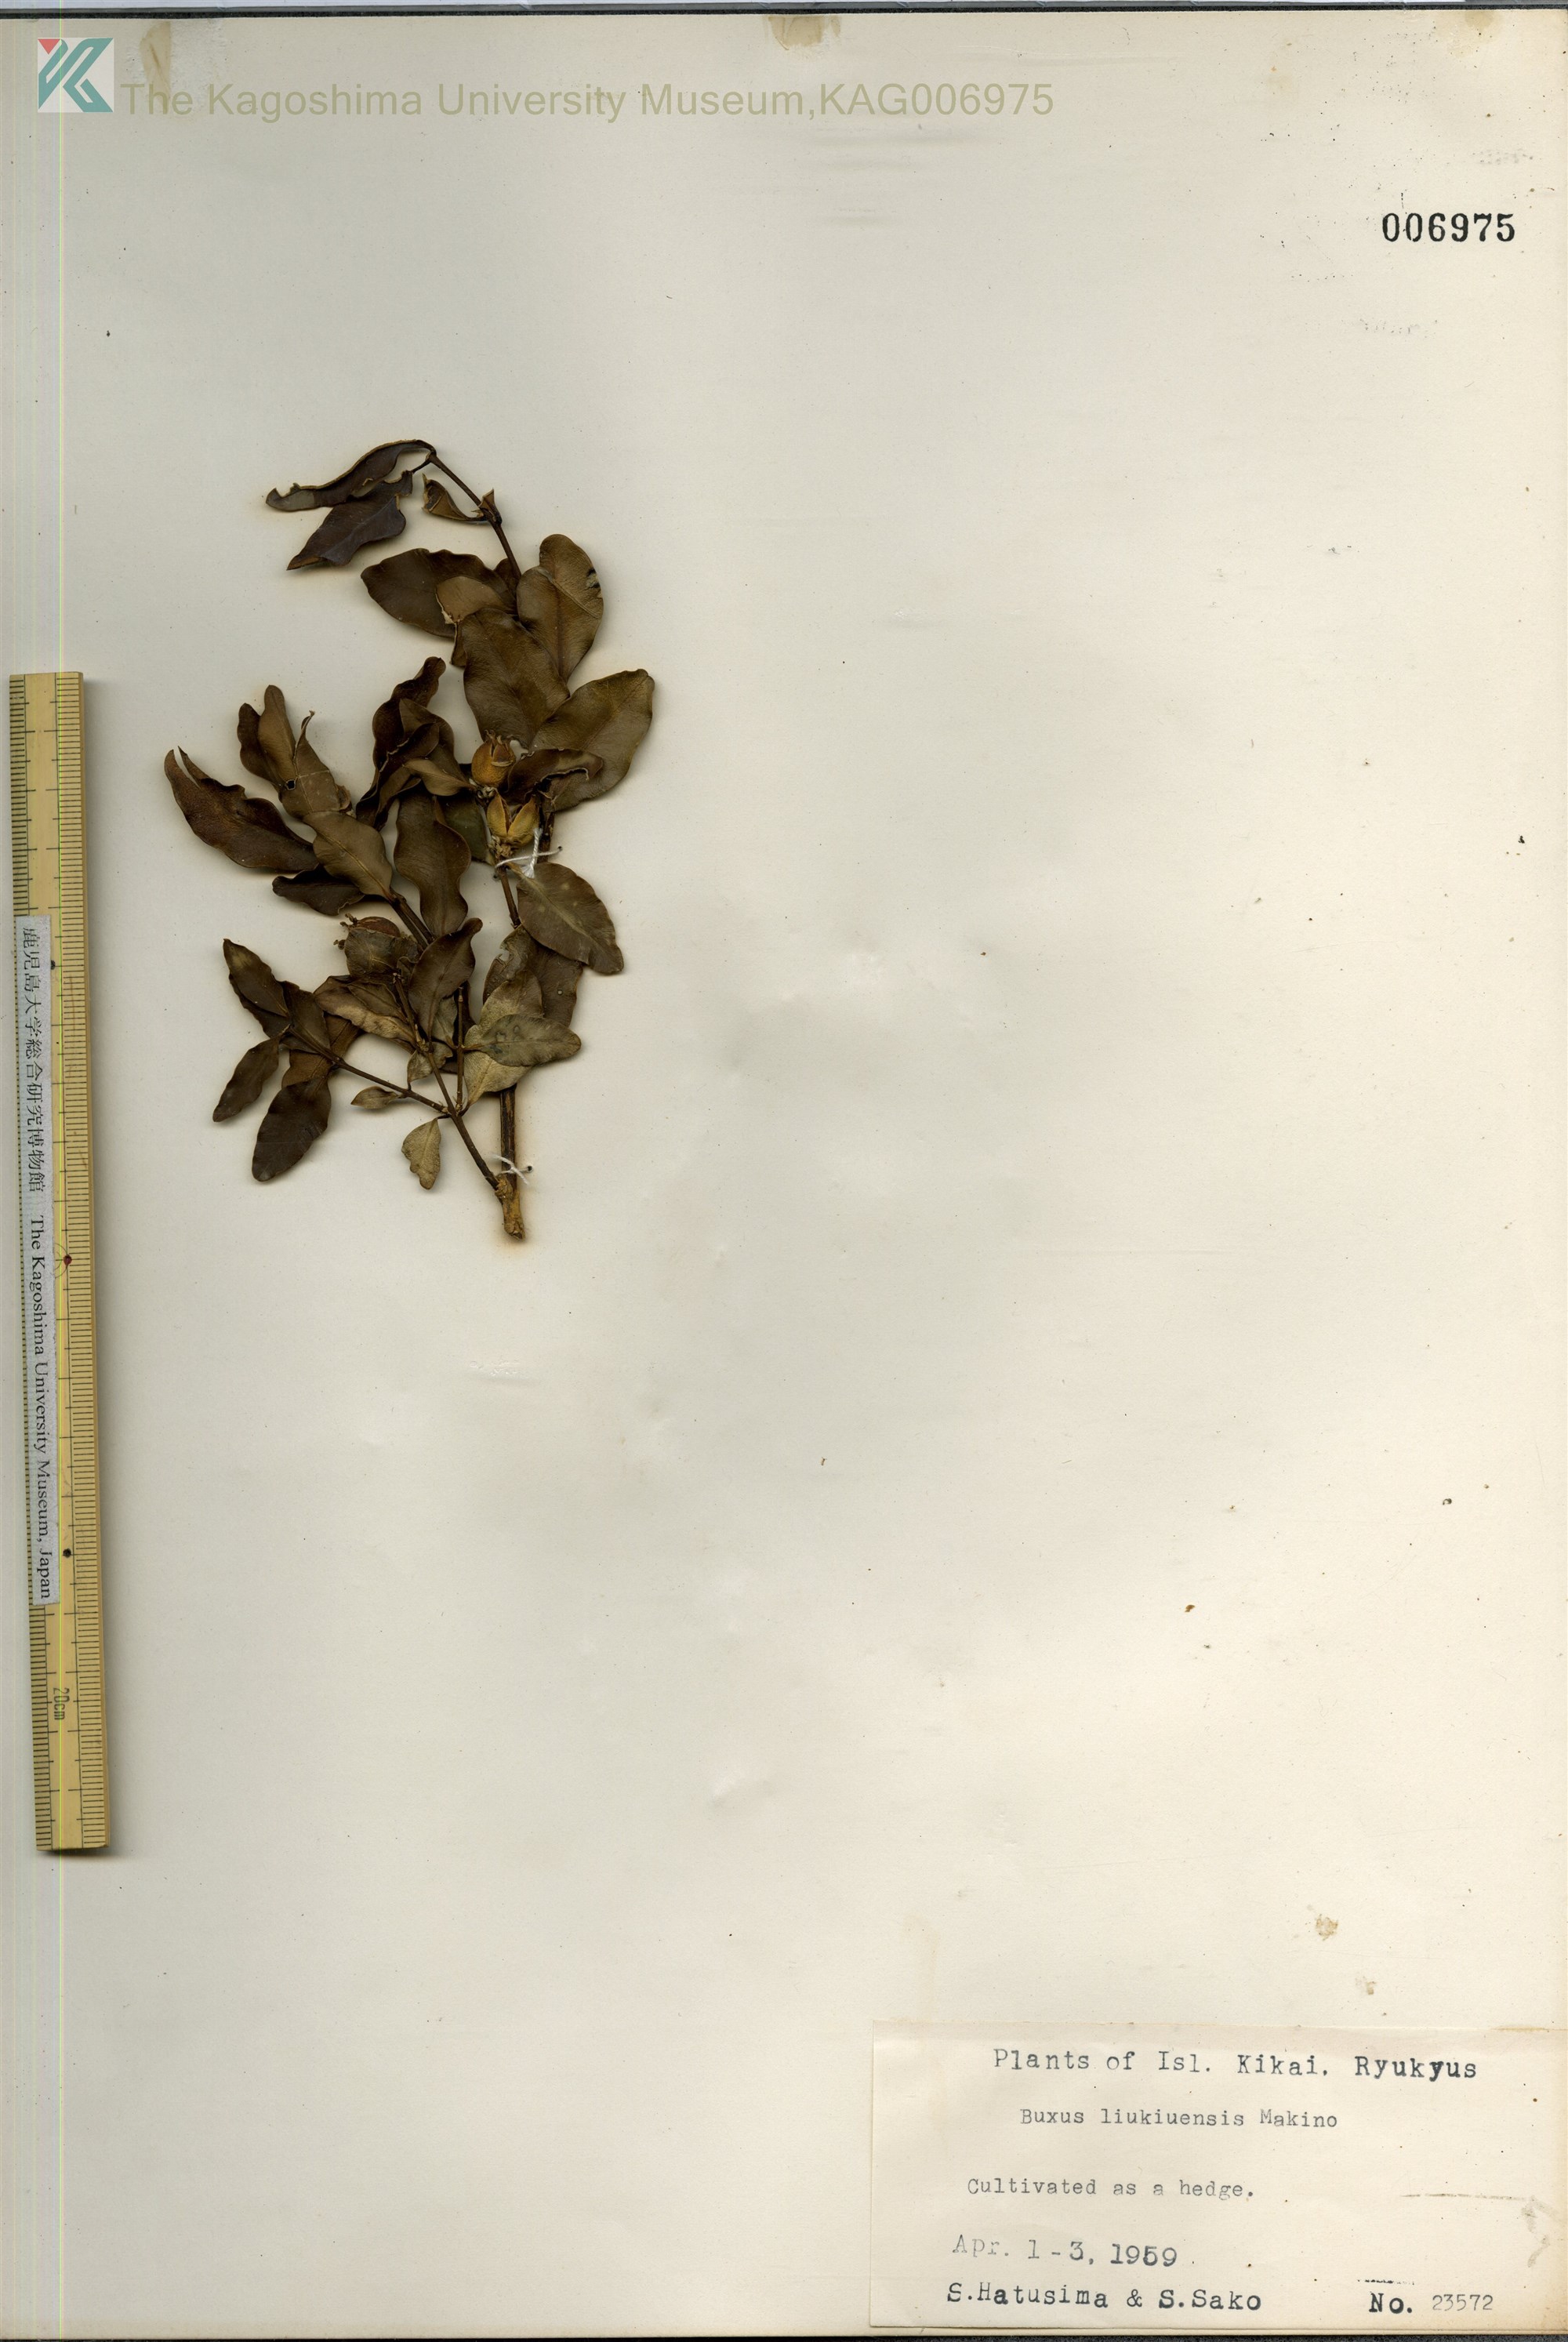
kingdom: Plantae
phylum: Tracheophyta
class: Magnoliopsida
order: Buxales
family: Buxaceae
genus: Buxus
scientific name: Buxus liukiuensis
